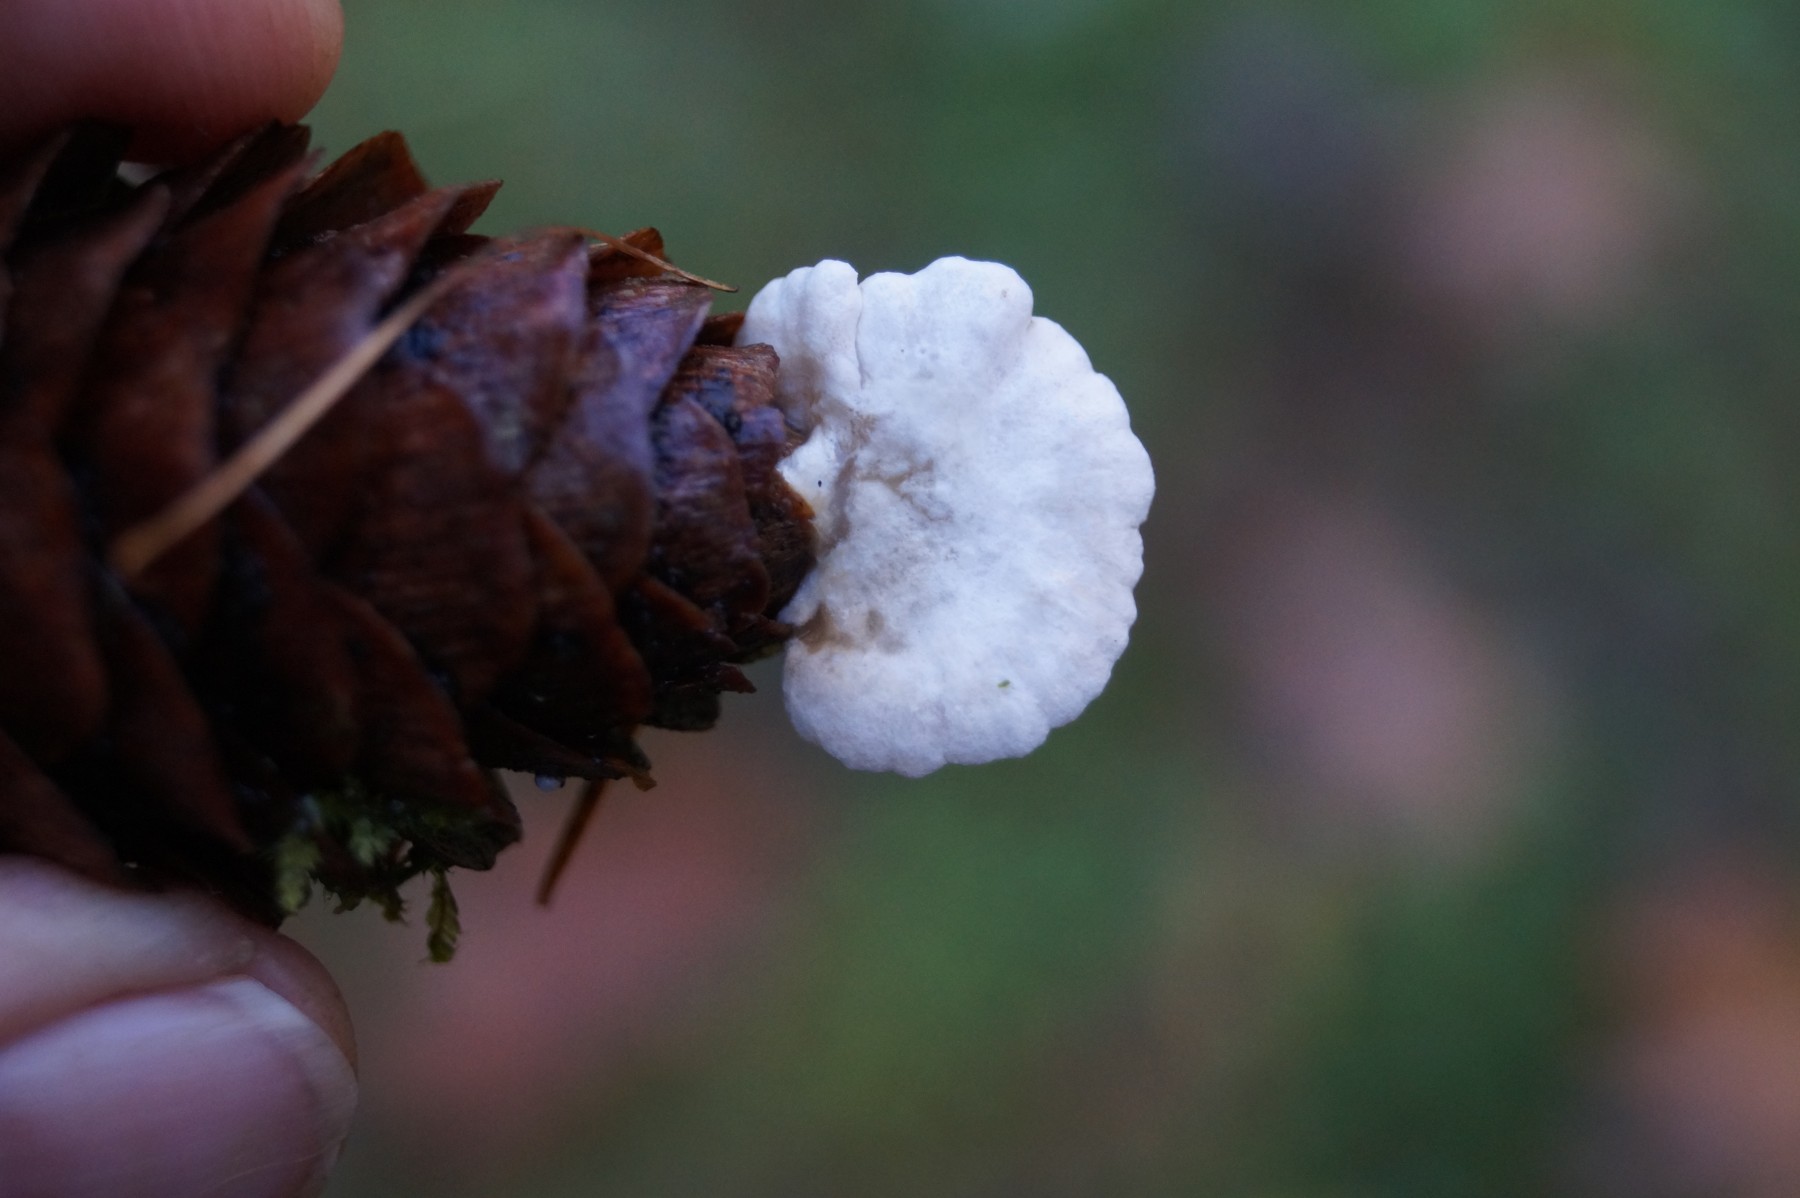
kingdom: Fungi
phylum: Basidiomycota
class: Agaricomycetes
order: Agaricales
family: Crepidotaceae
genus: Crepidotus
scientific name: Crepidotus
